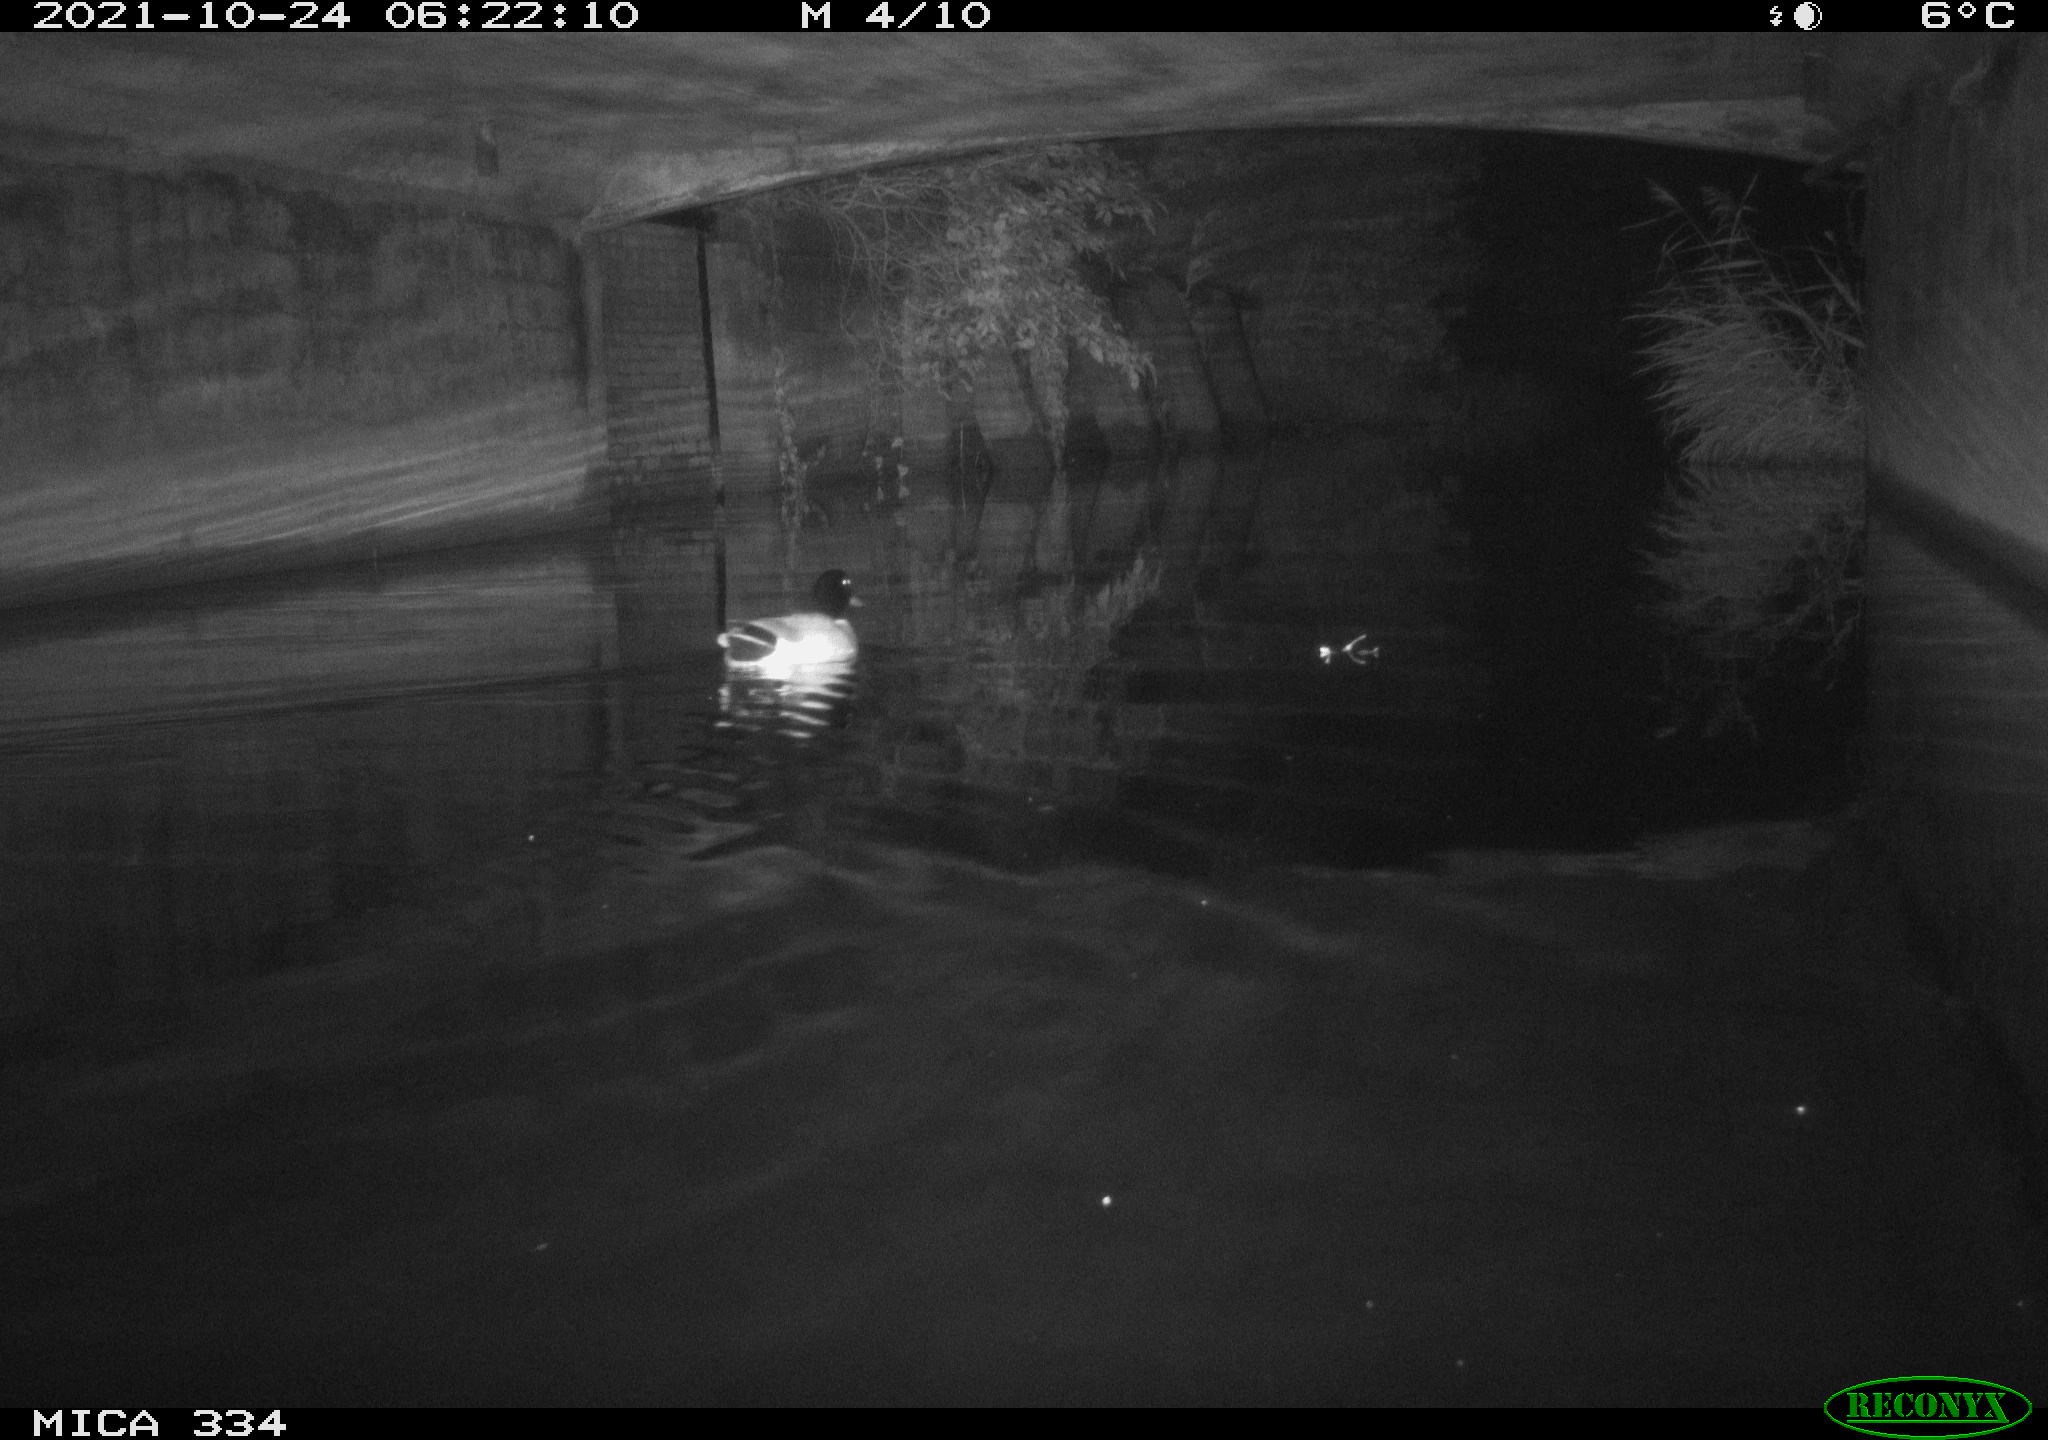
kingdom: Animalia
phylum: Chordata
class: Aves
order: Anseriformes
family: Anatidae
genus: Anas
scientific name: Anas platyrhynchos
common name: Mallard
